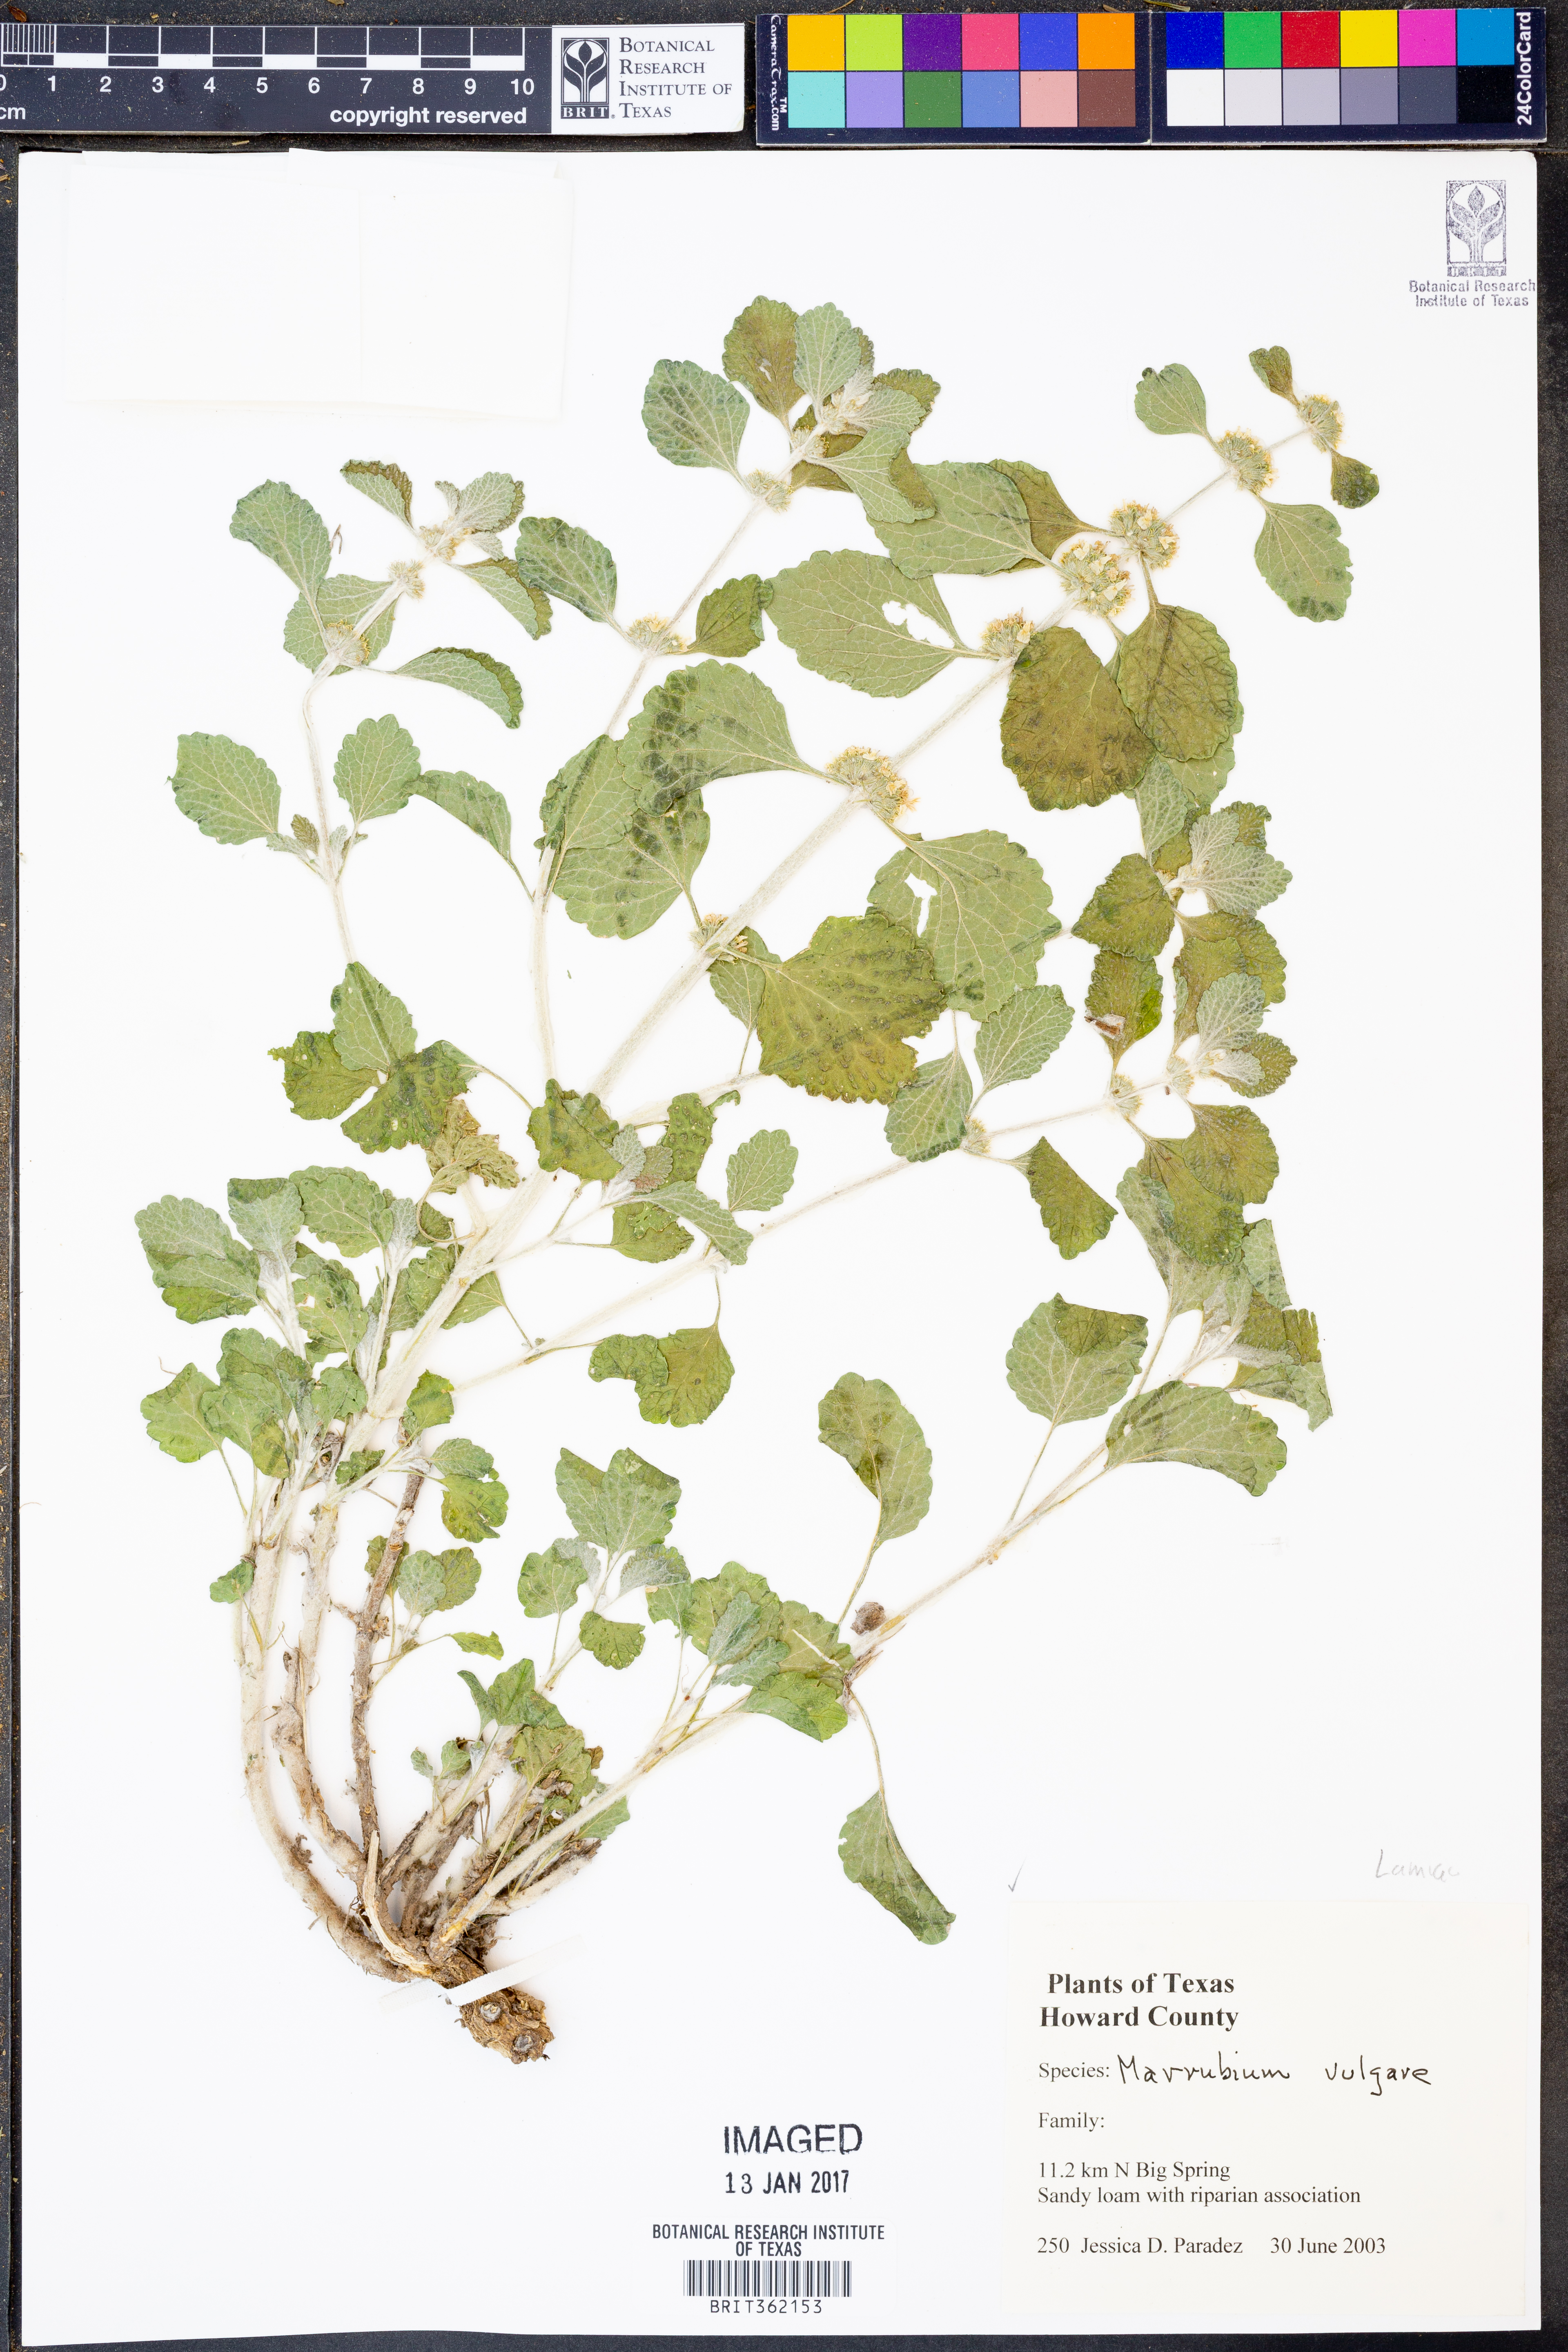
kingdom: Plantae
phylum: Tracheophyta
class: Magnoliopsida
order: Lamiales
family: Lamiaceae
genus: Marrubium
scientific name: Marrubium vulgare
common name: Horehound
